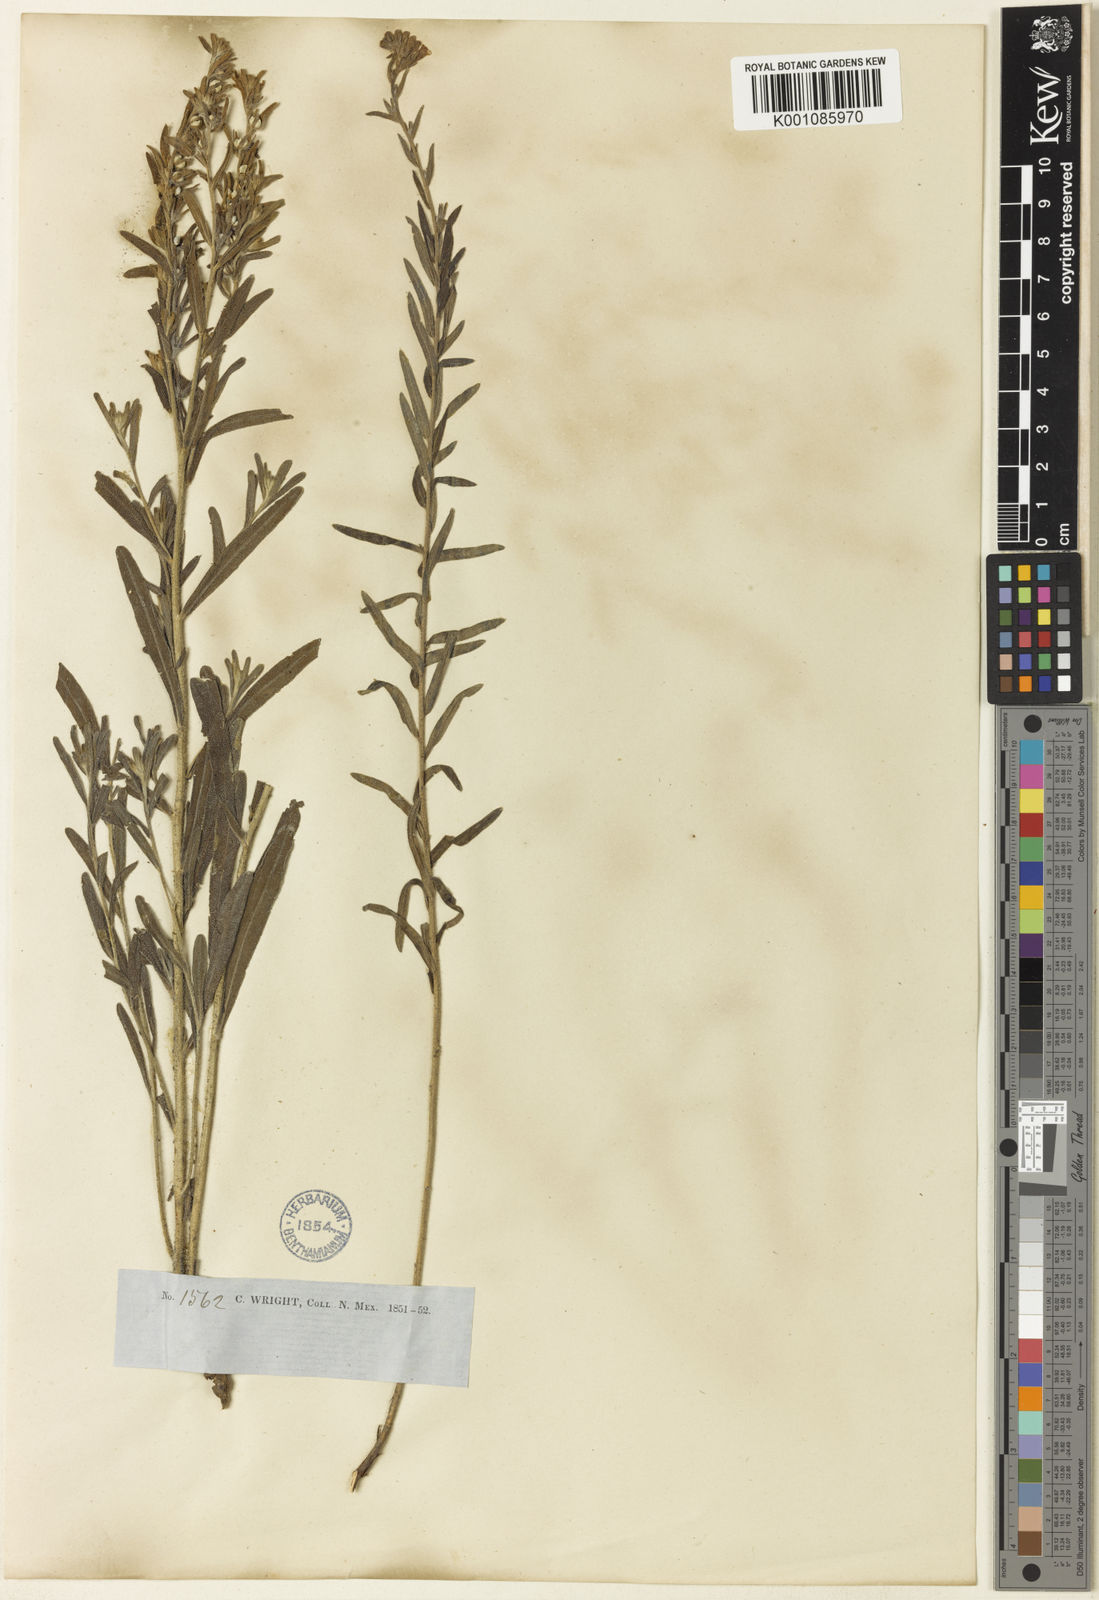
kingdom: Plantae
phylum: Tracheophyta
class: Magnoliopsida
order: Boraginales
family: Boraginaceae
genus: Lithospermum
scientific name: Lithospermum multiflorum
